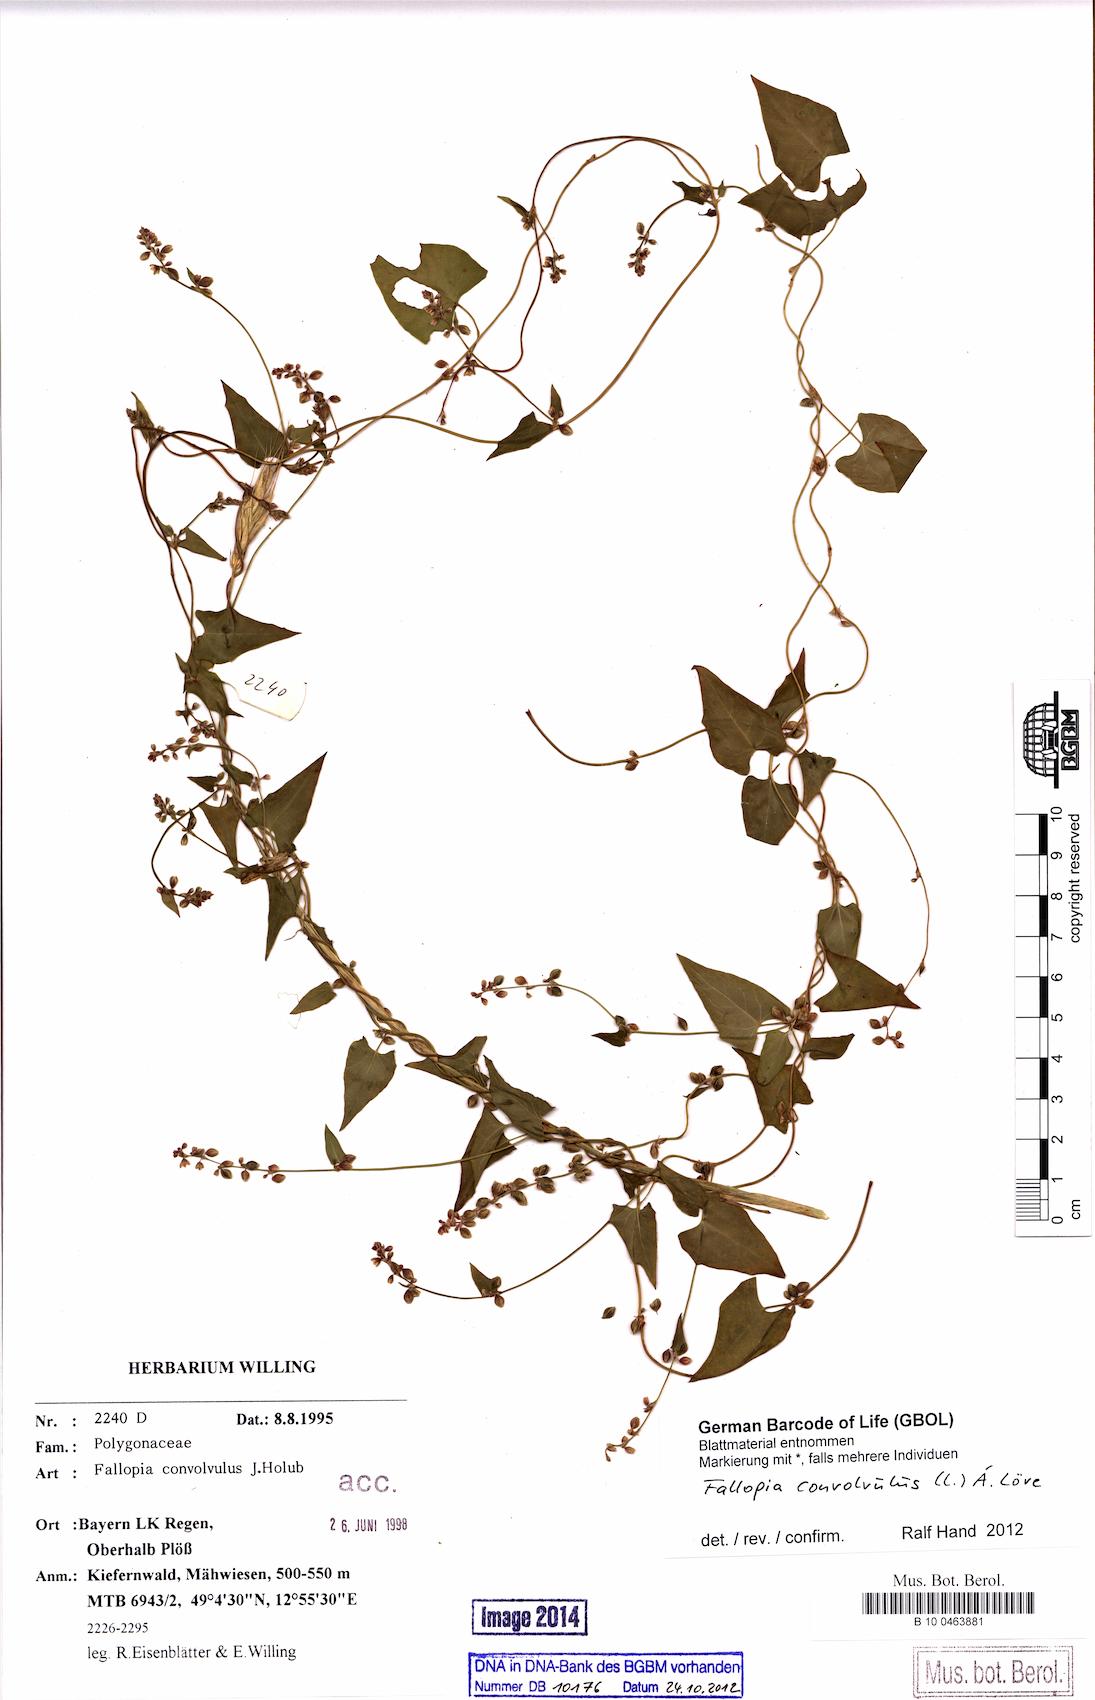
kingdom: Plantae
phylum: Tracheophyta
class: Magnoliopsida
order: Caryophyllales
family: Polygonaceae
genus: Fallopia
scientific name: Fallopia convolvulus
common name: Black bindweed
